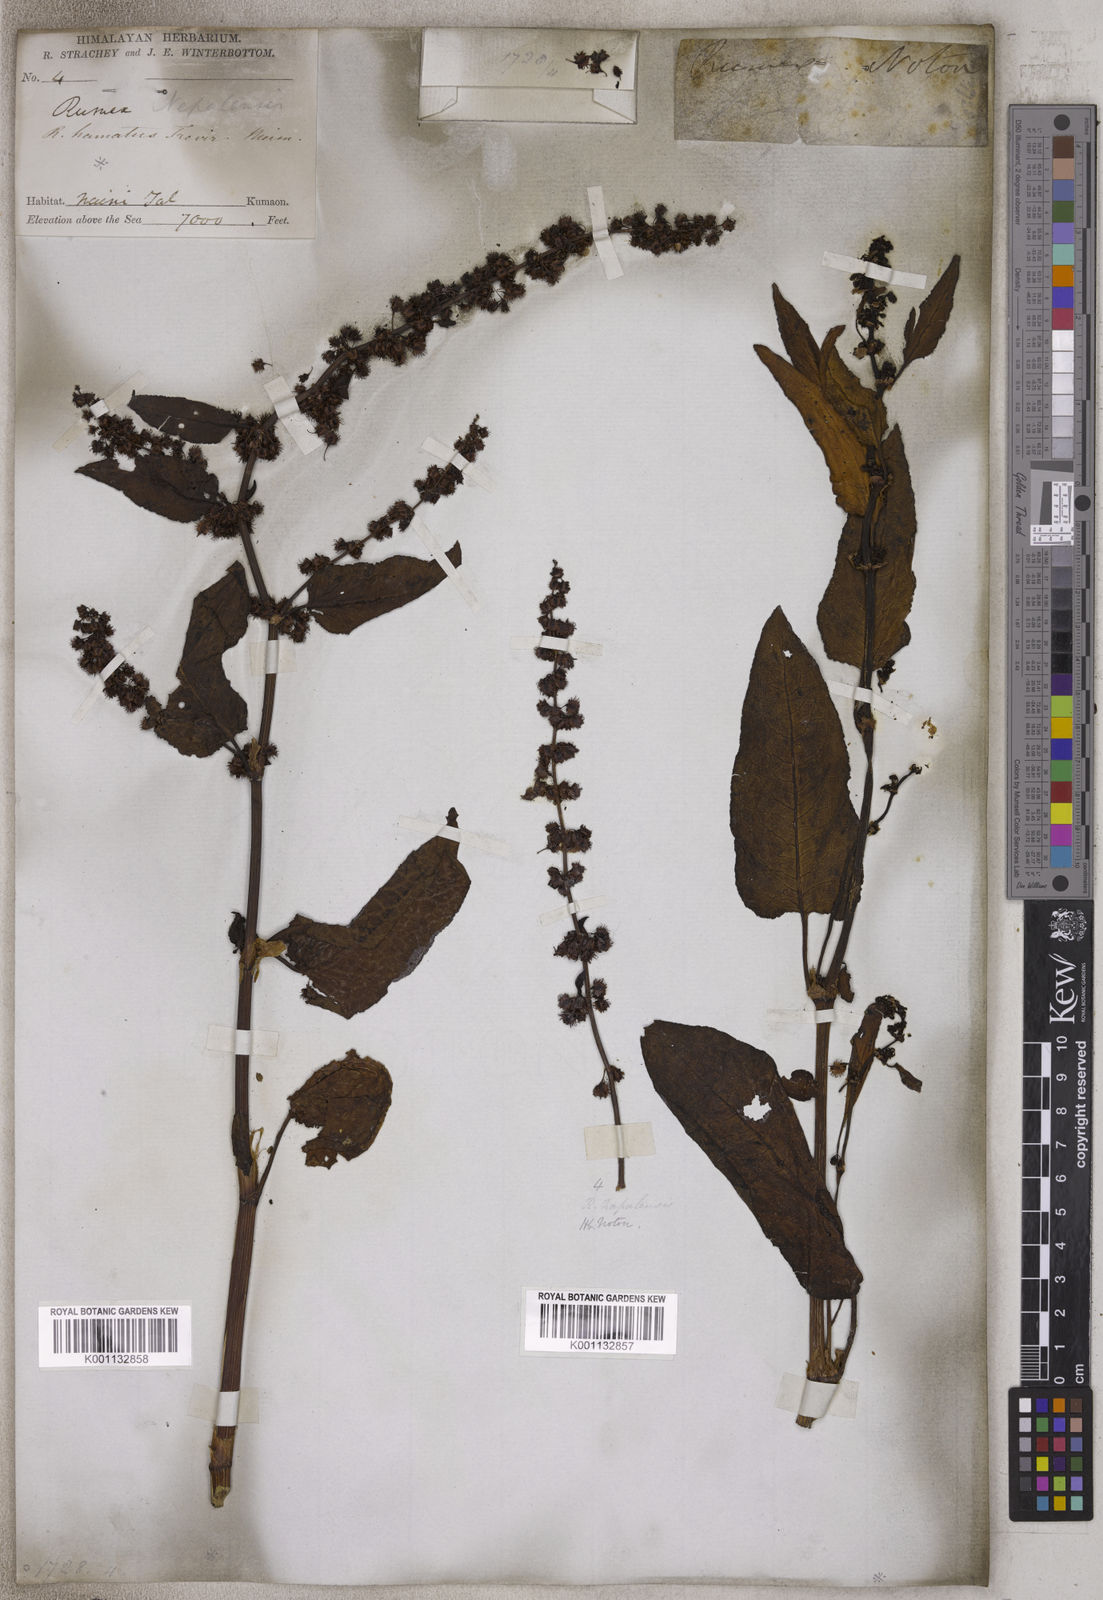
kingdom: Plantae
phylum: Tracheophyta
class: Magnoliopsida
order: Caryophyllales
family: Polygonaceae
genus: Rumex
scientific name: Rumex nepalensis
